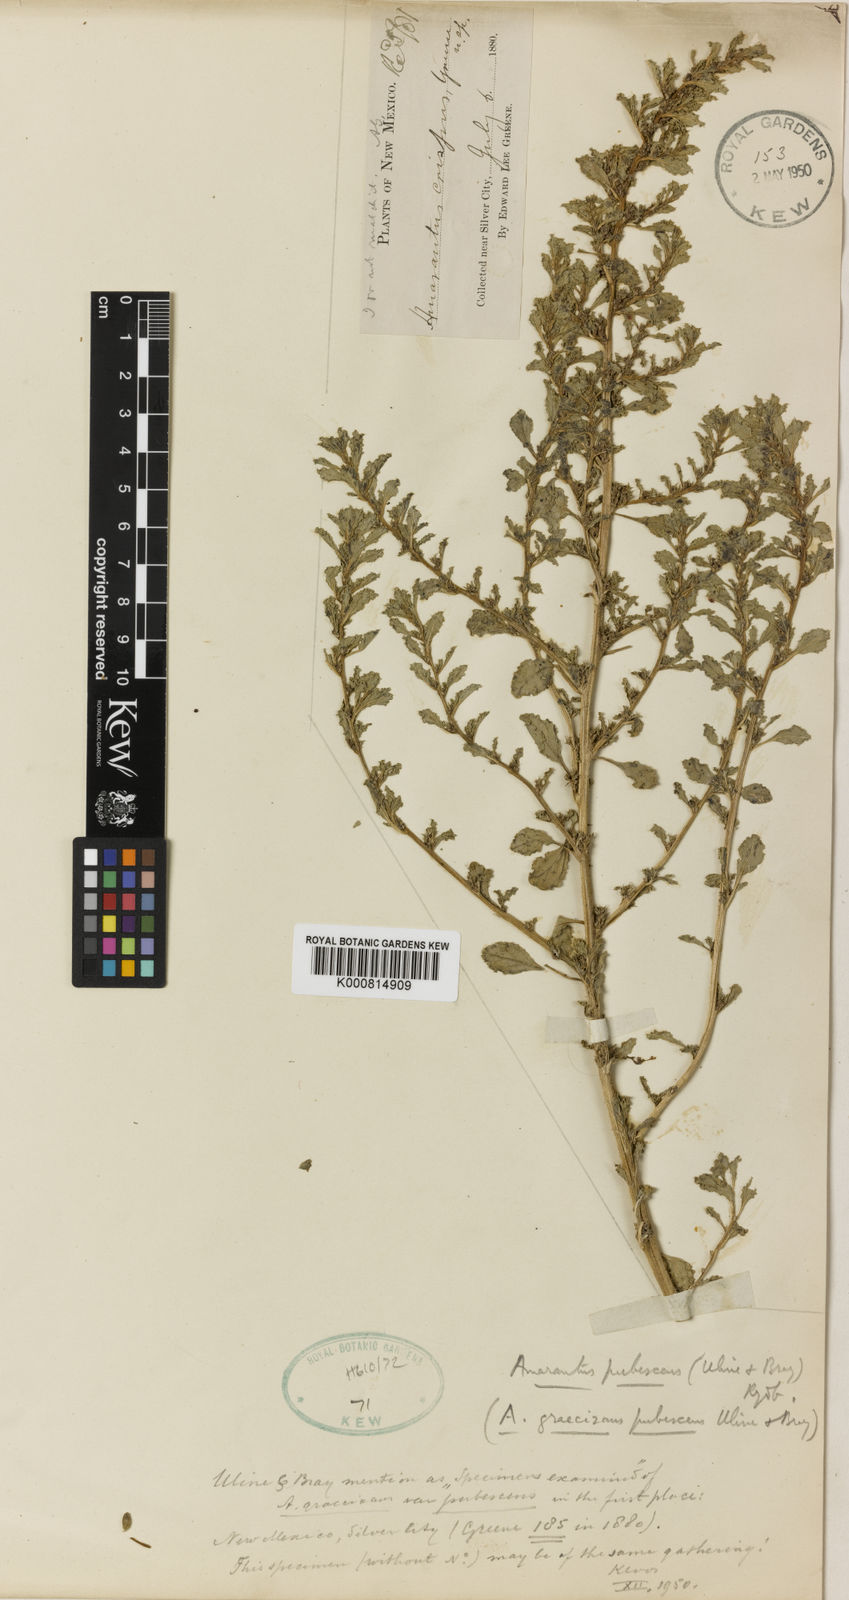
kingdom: Plantae
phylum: Tracheophyta
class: Magnoliopsida
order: Caryophyllales
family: Amaranthaceae
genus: Amaranthus
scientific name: Amaranthus albus
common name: White pigweed
